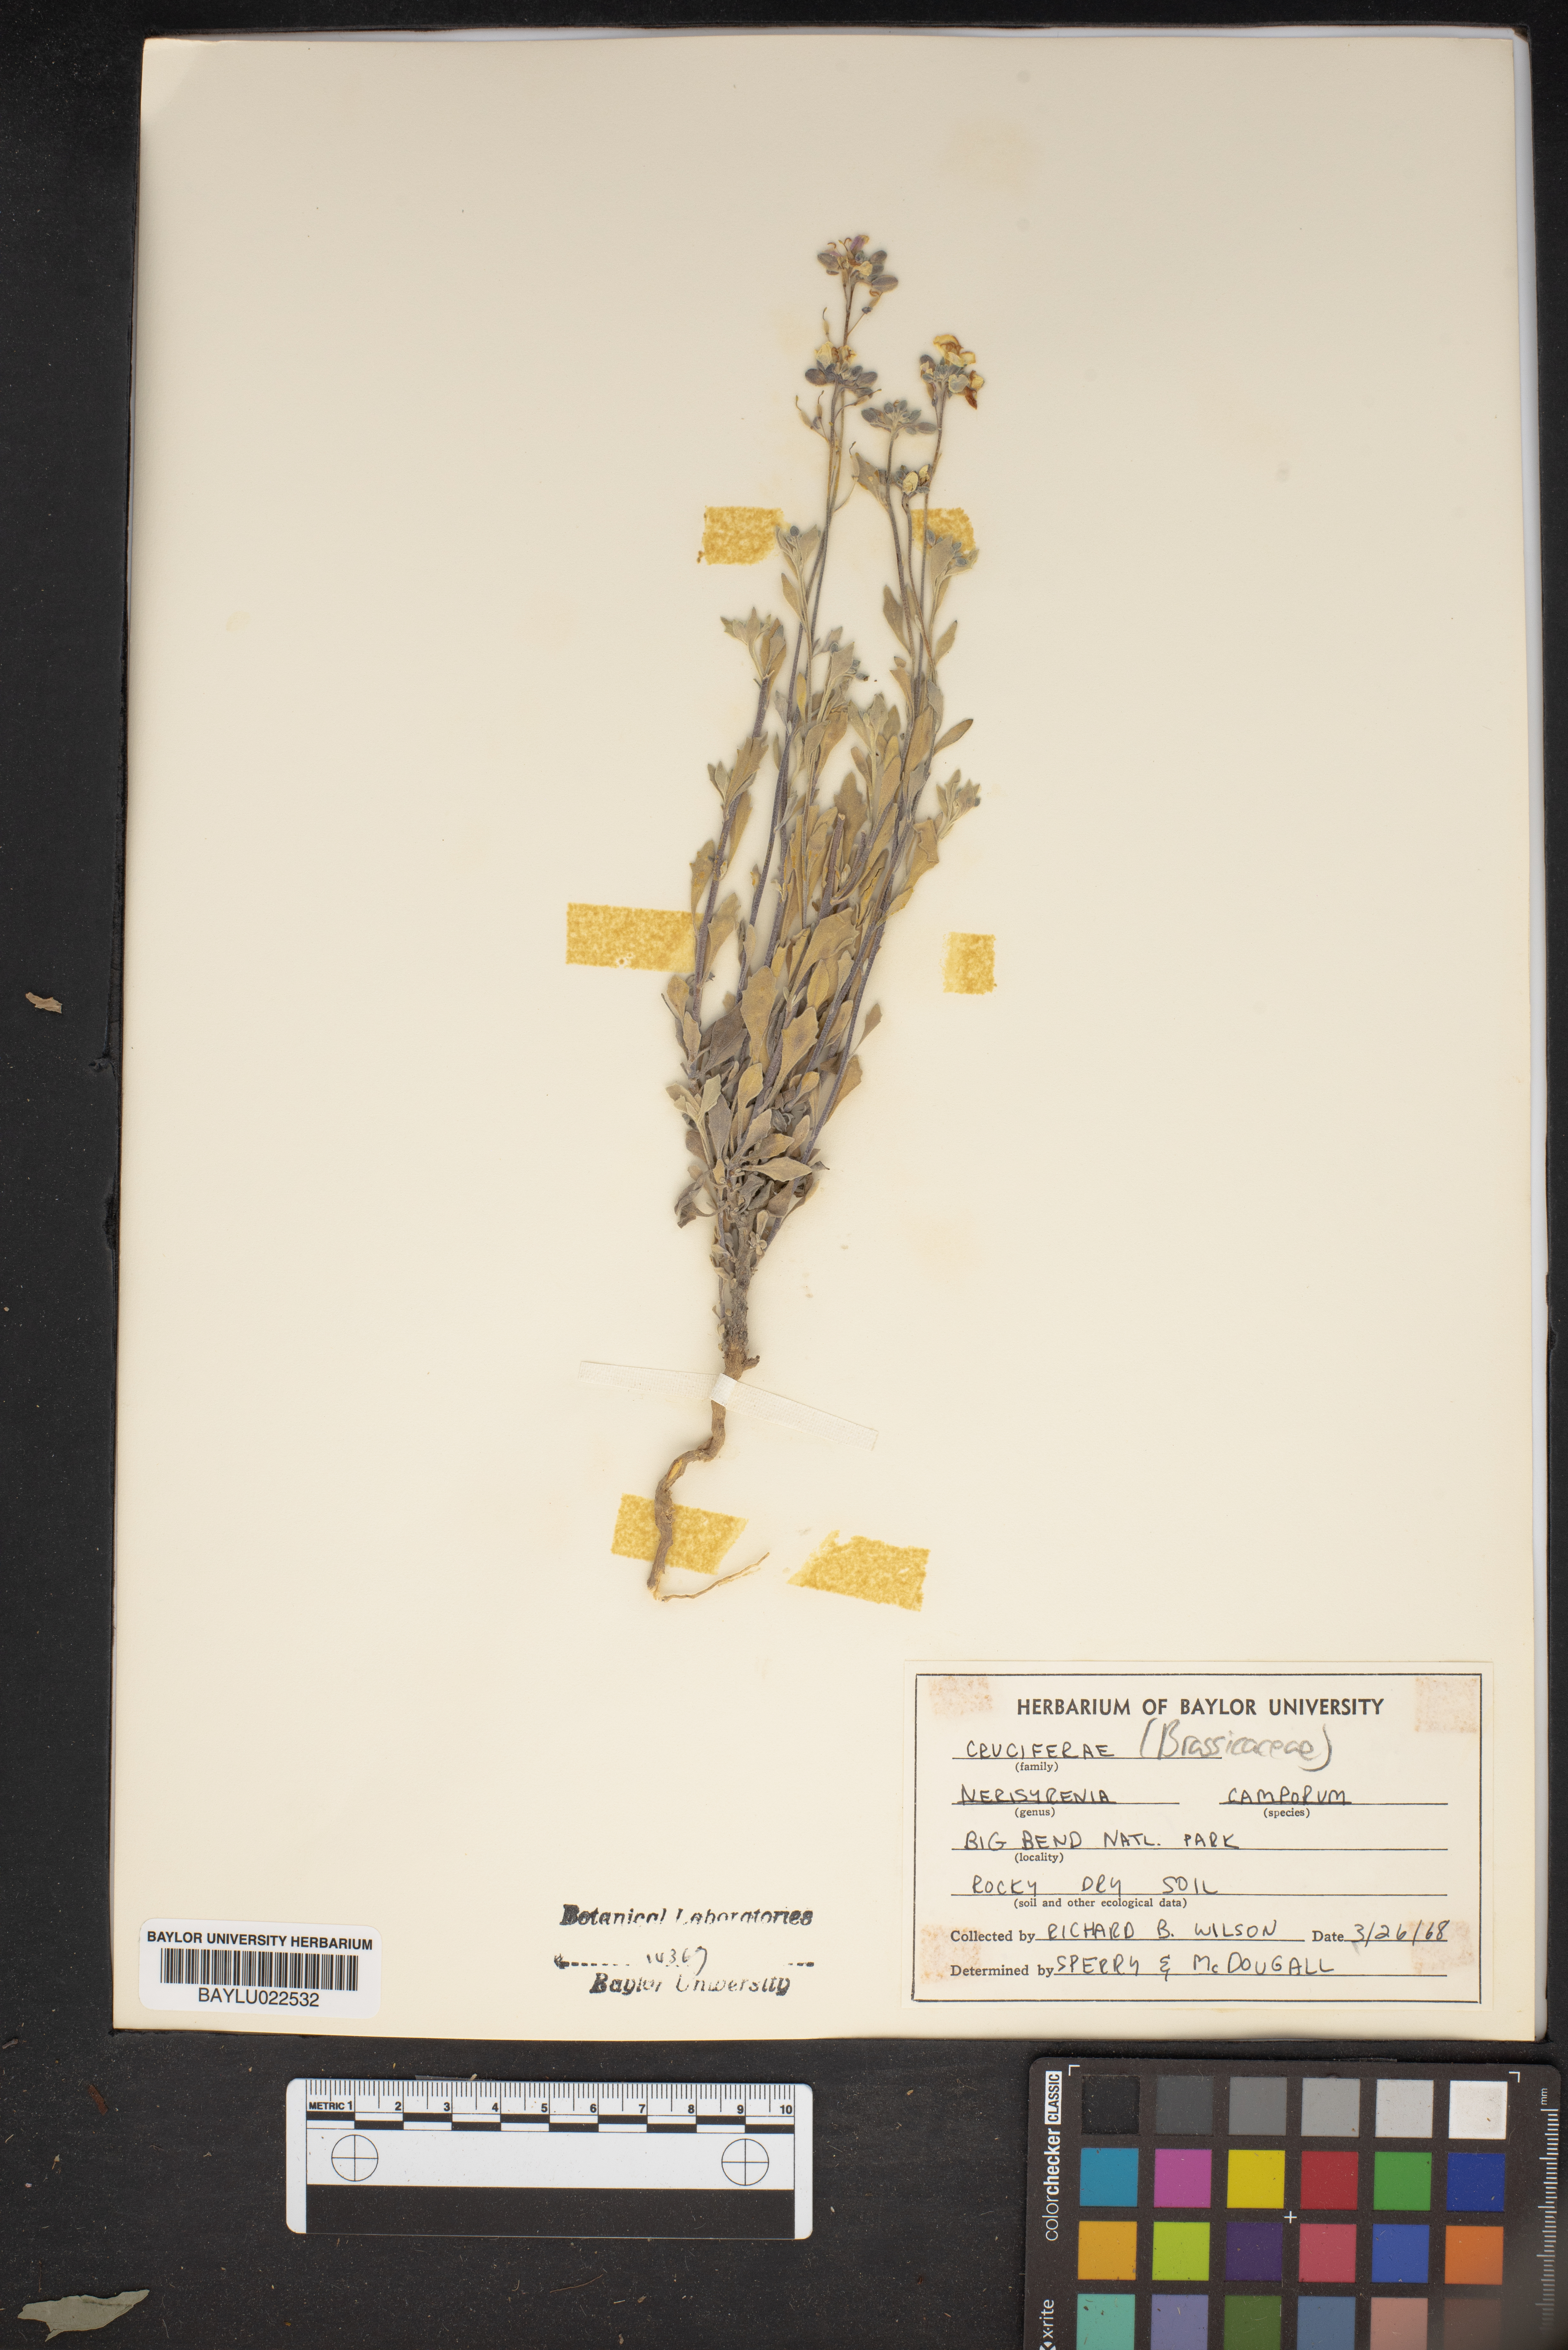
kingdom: Plantae
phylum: Tracheophyta
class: Magnoliopsida
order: Brassicales
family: Brassicaceae
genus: Nerisyrenia
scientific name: Nerisyrenia camporum
